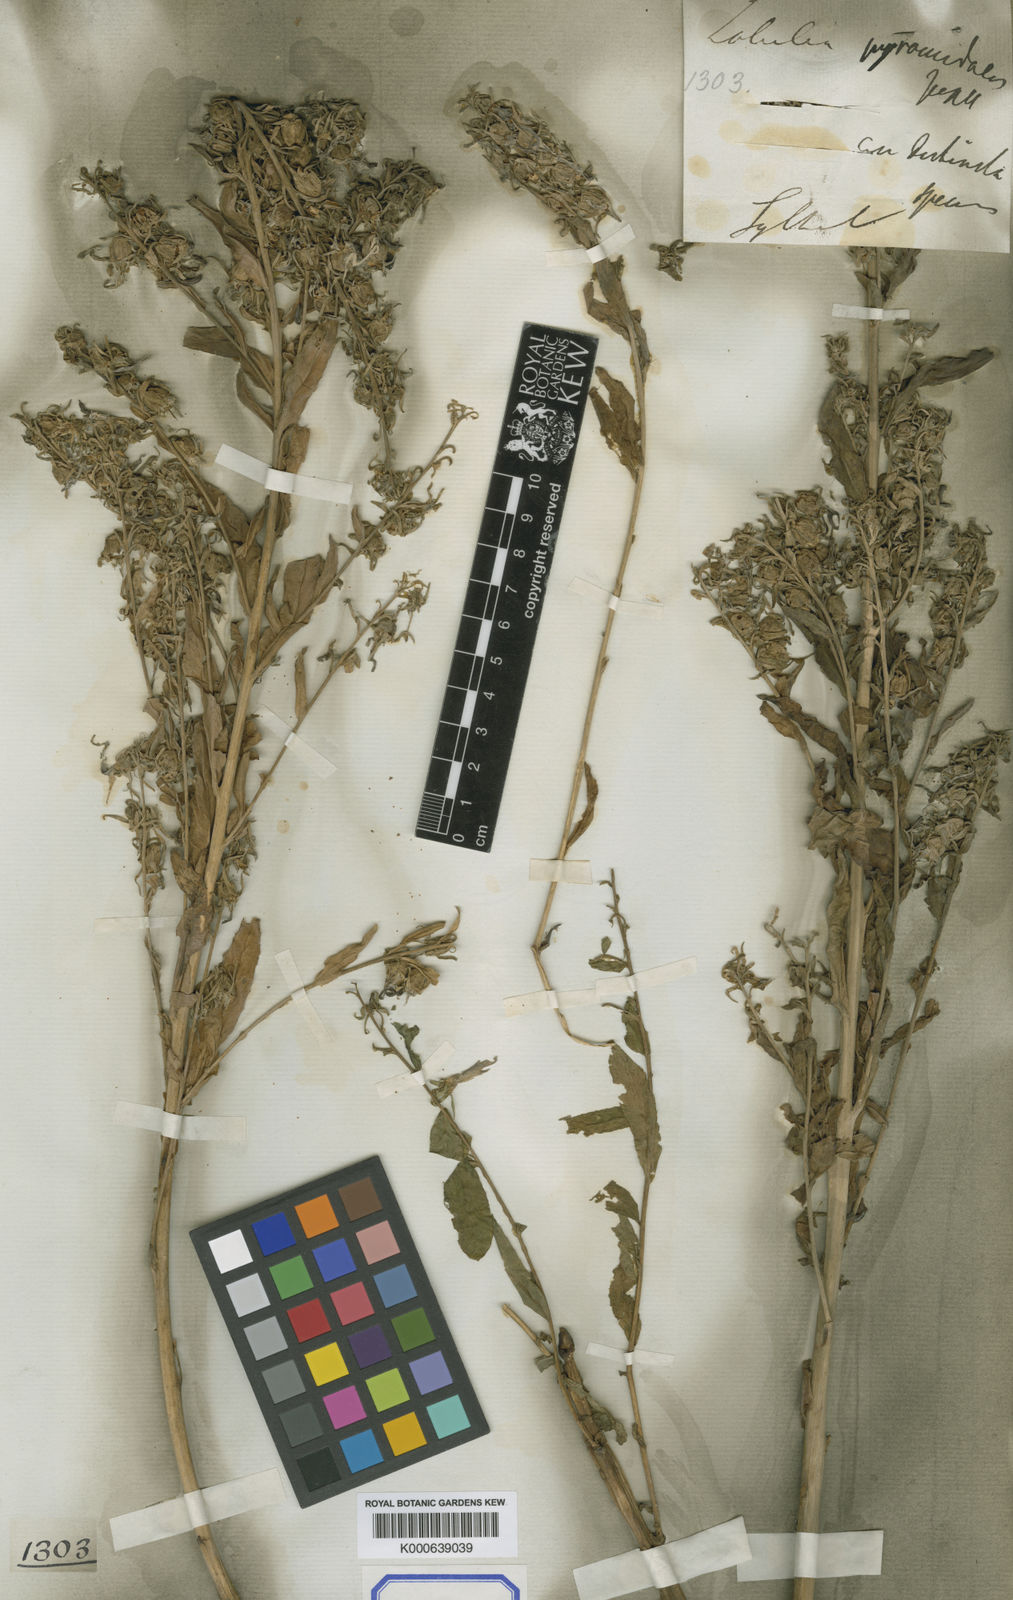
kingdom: Plantae
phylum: Tracheophyta
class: Magnoliopsida
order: Asterales
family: Campanulaceae
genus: Lobelia
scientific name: Lobelia pyramidalis
